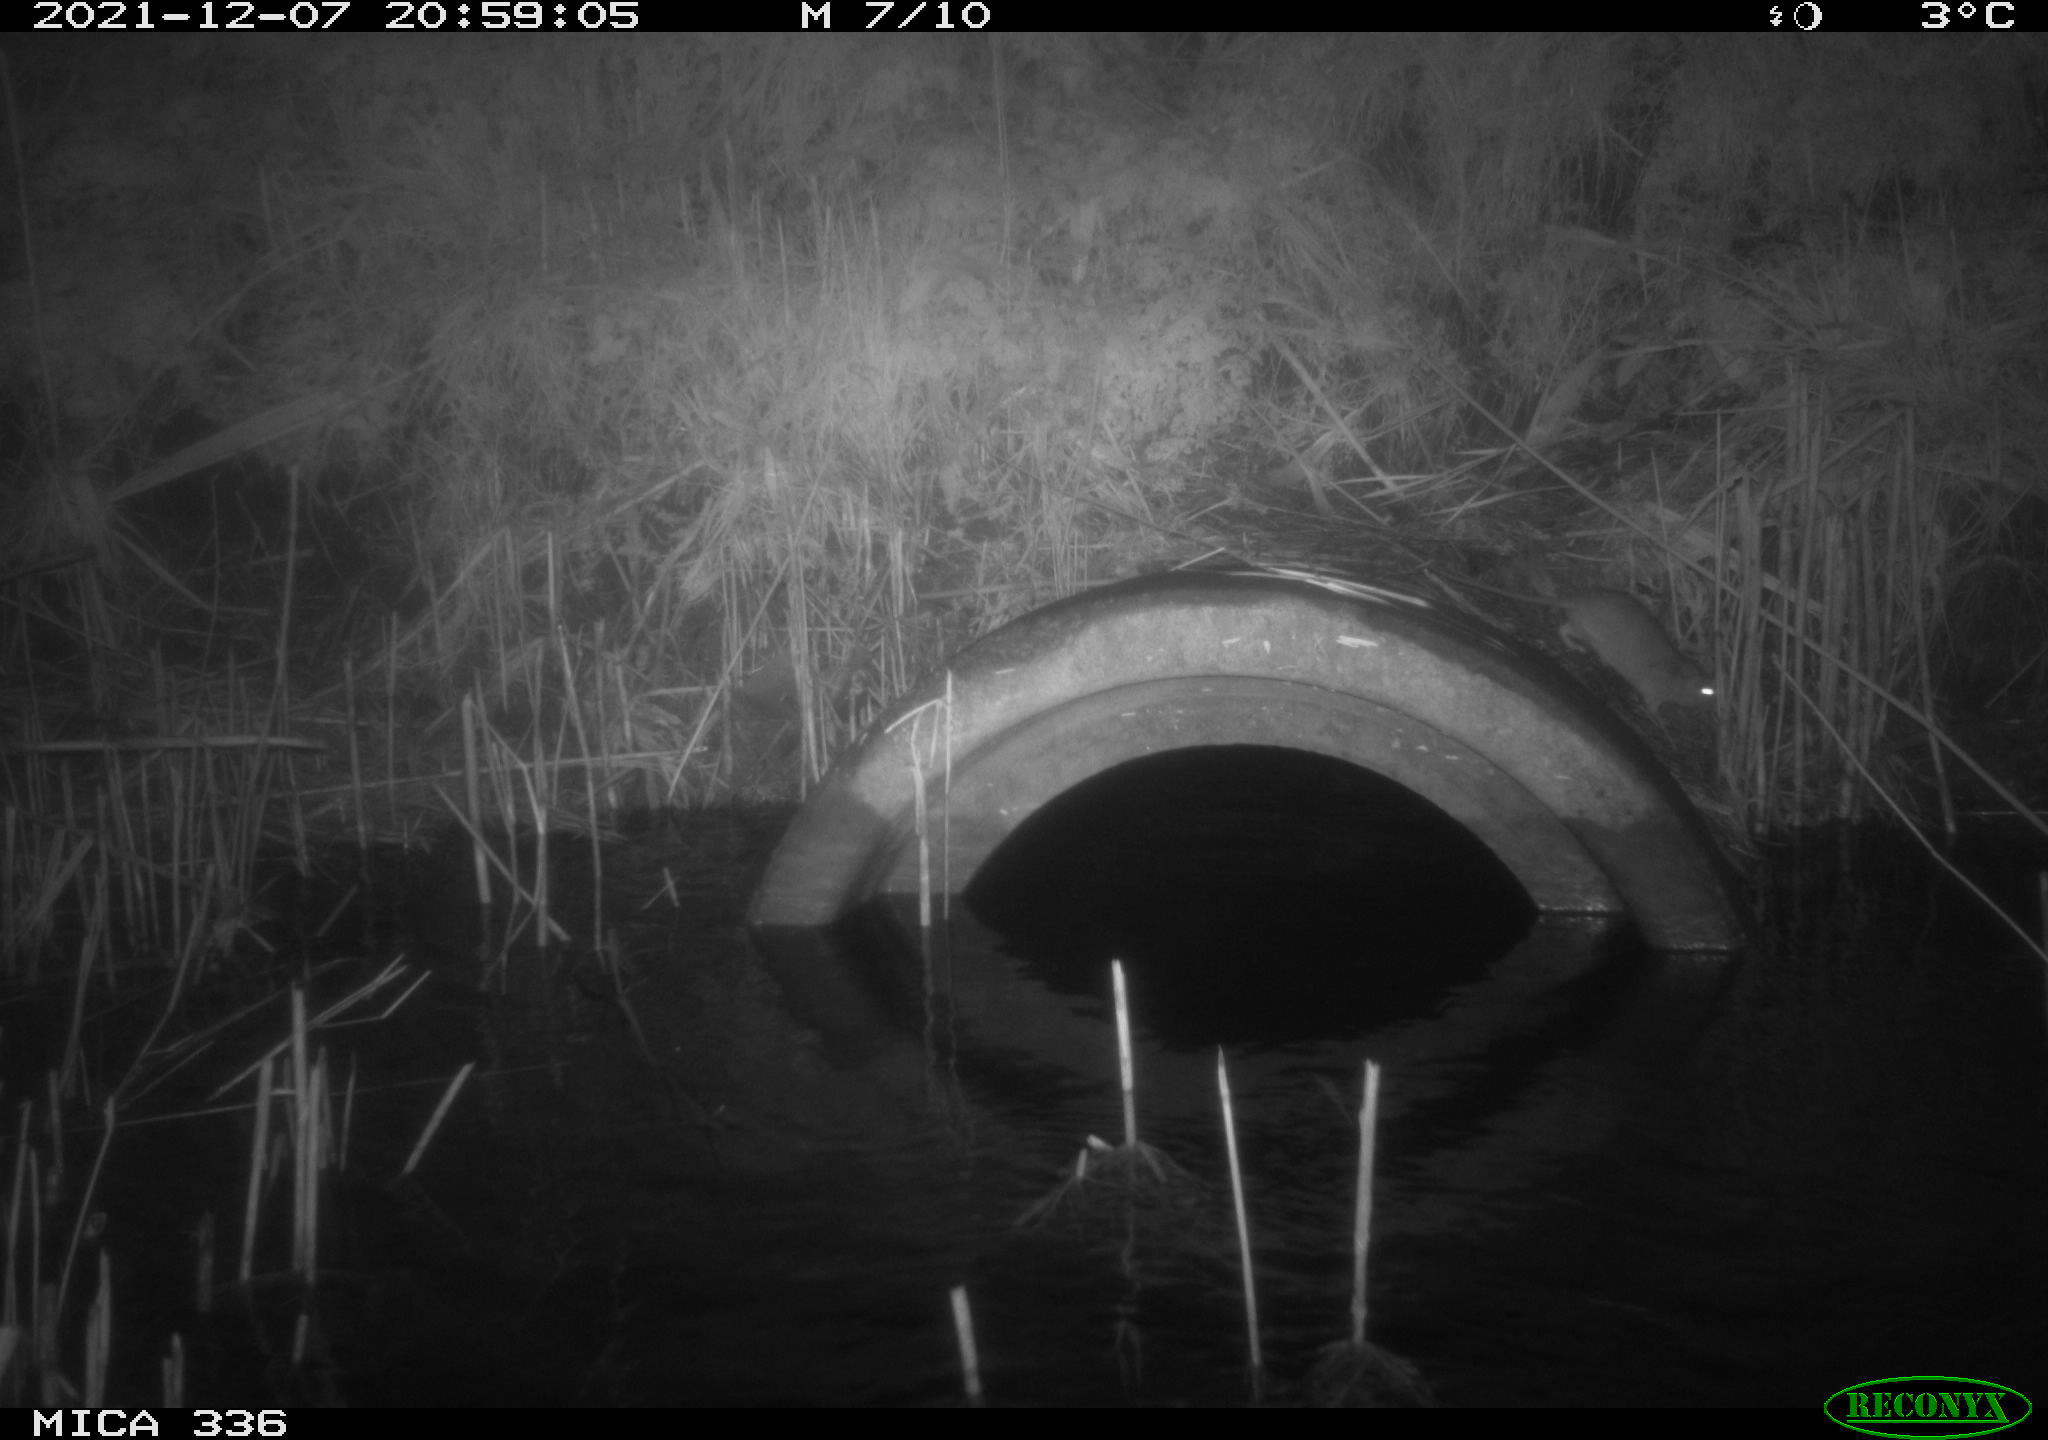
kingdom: Animalia
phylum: Chordata
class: Mammalia
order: Rodentia
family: Muridae
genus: Rattus
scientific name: Rattus norvegicus
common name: Brown rat
